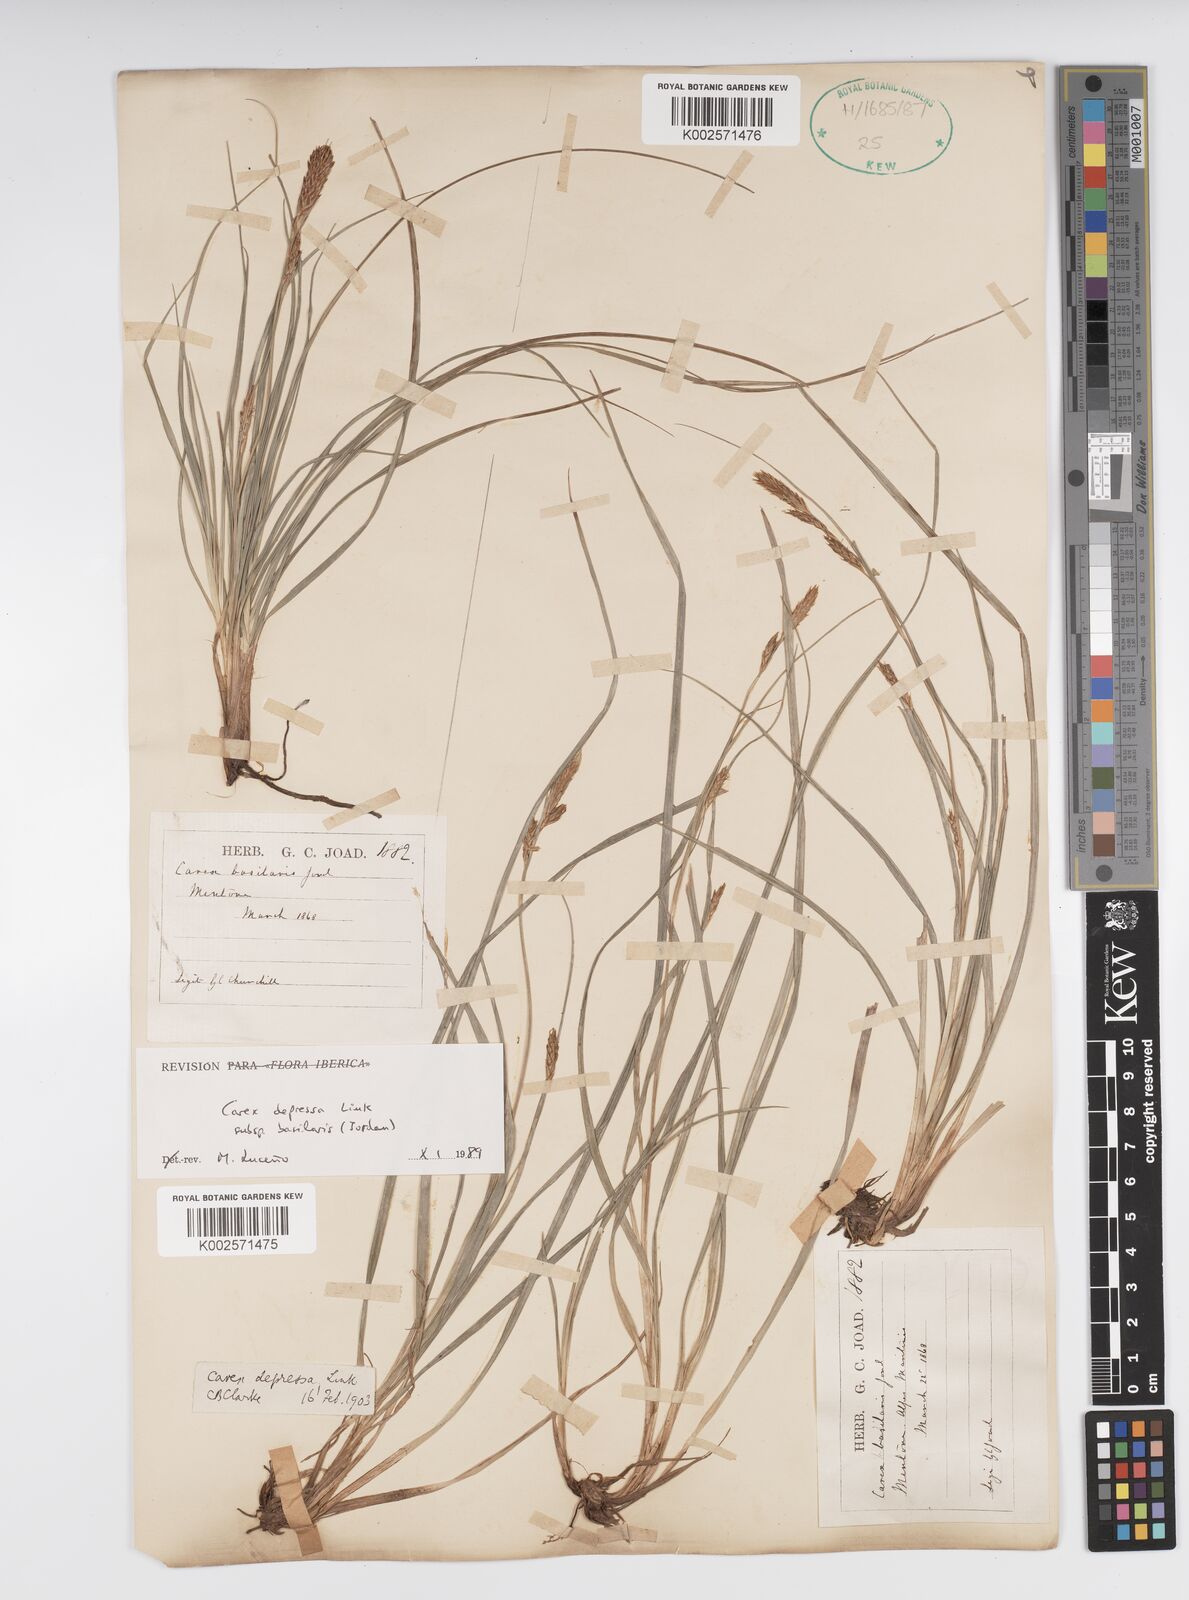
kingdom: Plantae
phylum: Tracheophyta
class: Liliopsida
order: Poales
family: Cyperaceae
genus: Carex
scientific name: Carex depressa
